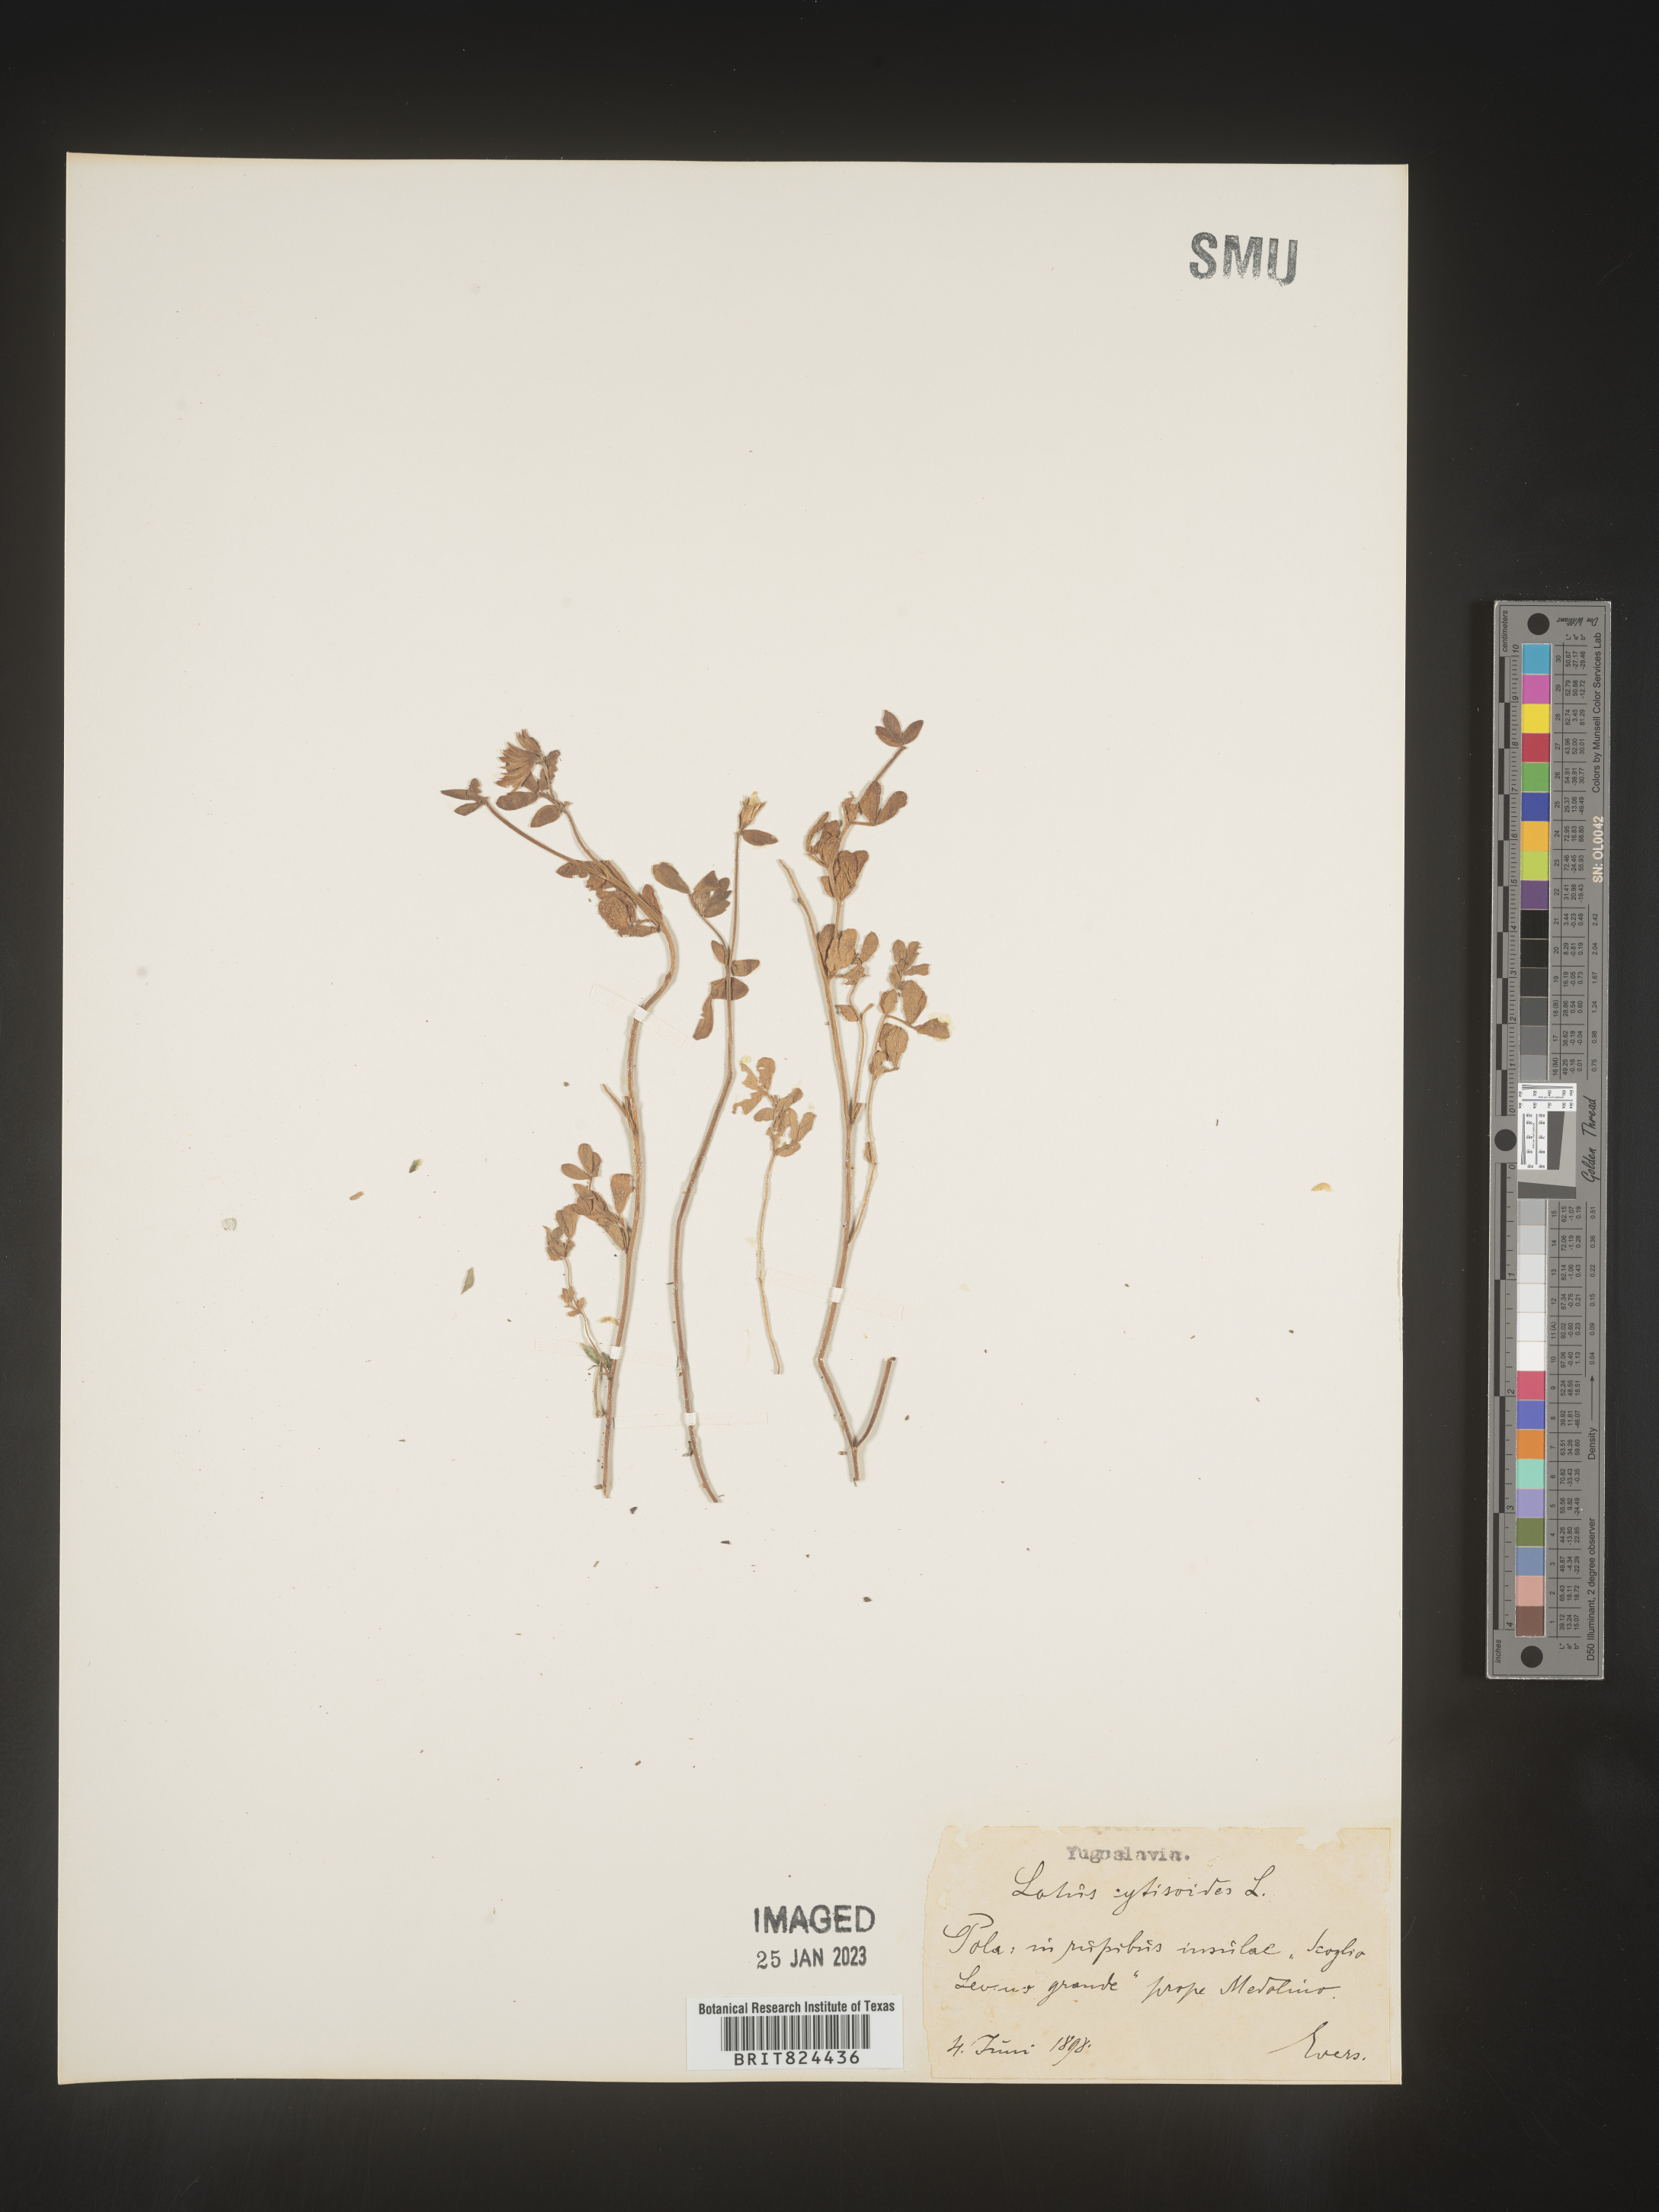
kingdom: Plantae
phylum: Tracheophyta
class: Magnoliopsida
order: Fabales
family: Fabaceae
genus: Lotus
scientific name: Lotus
